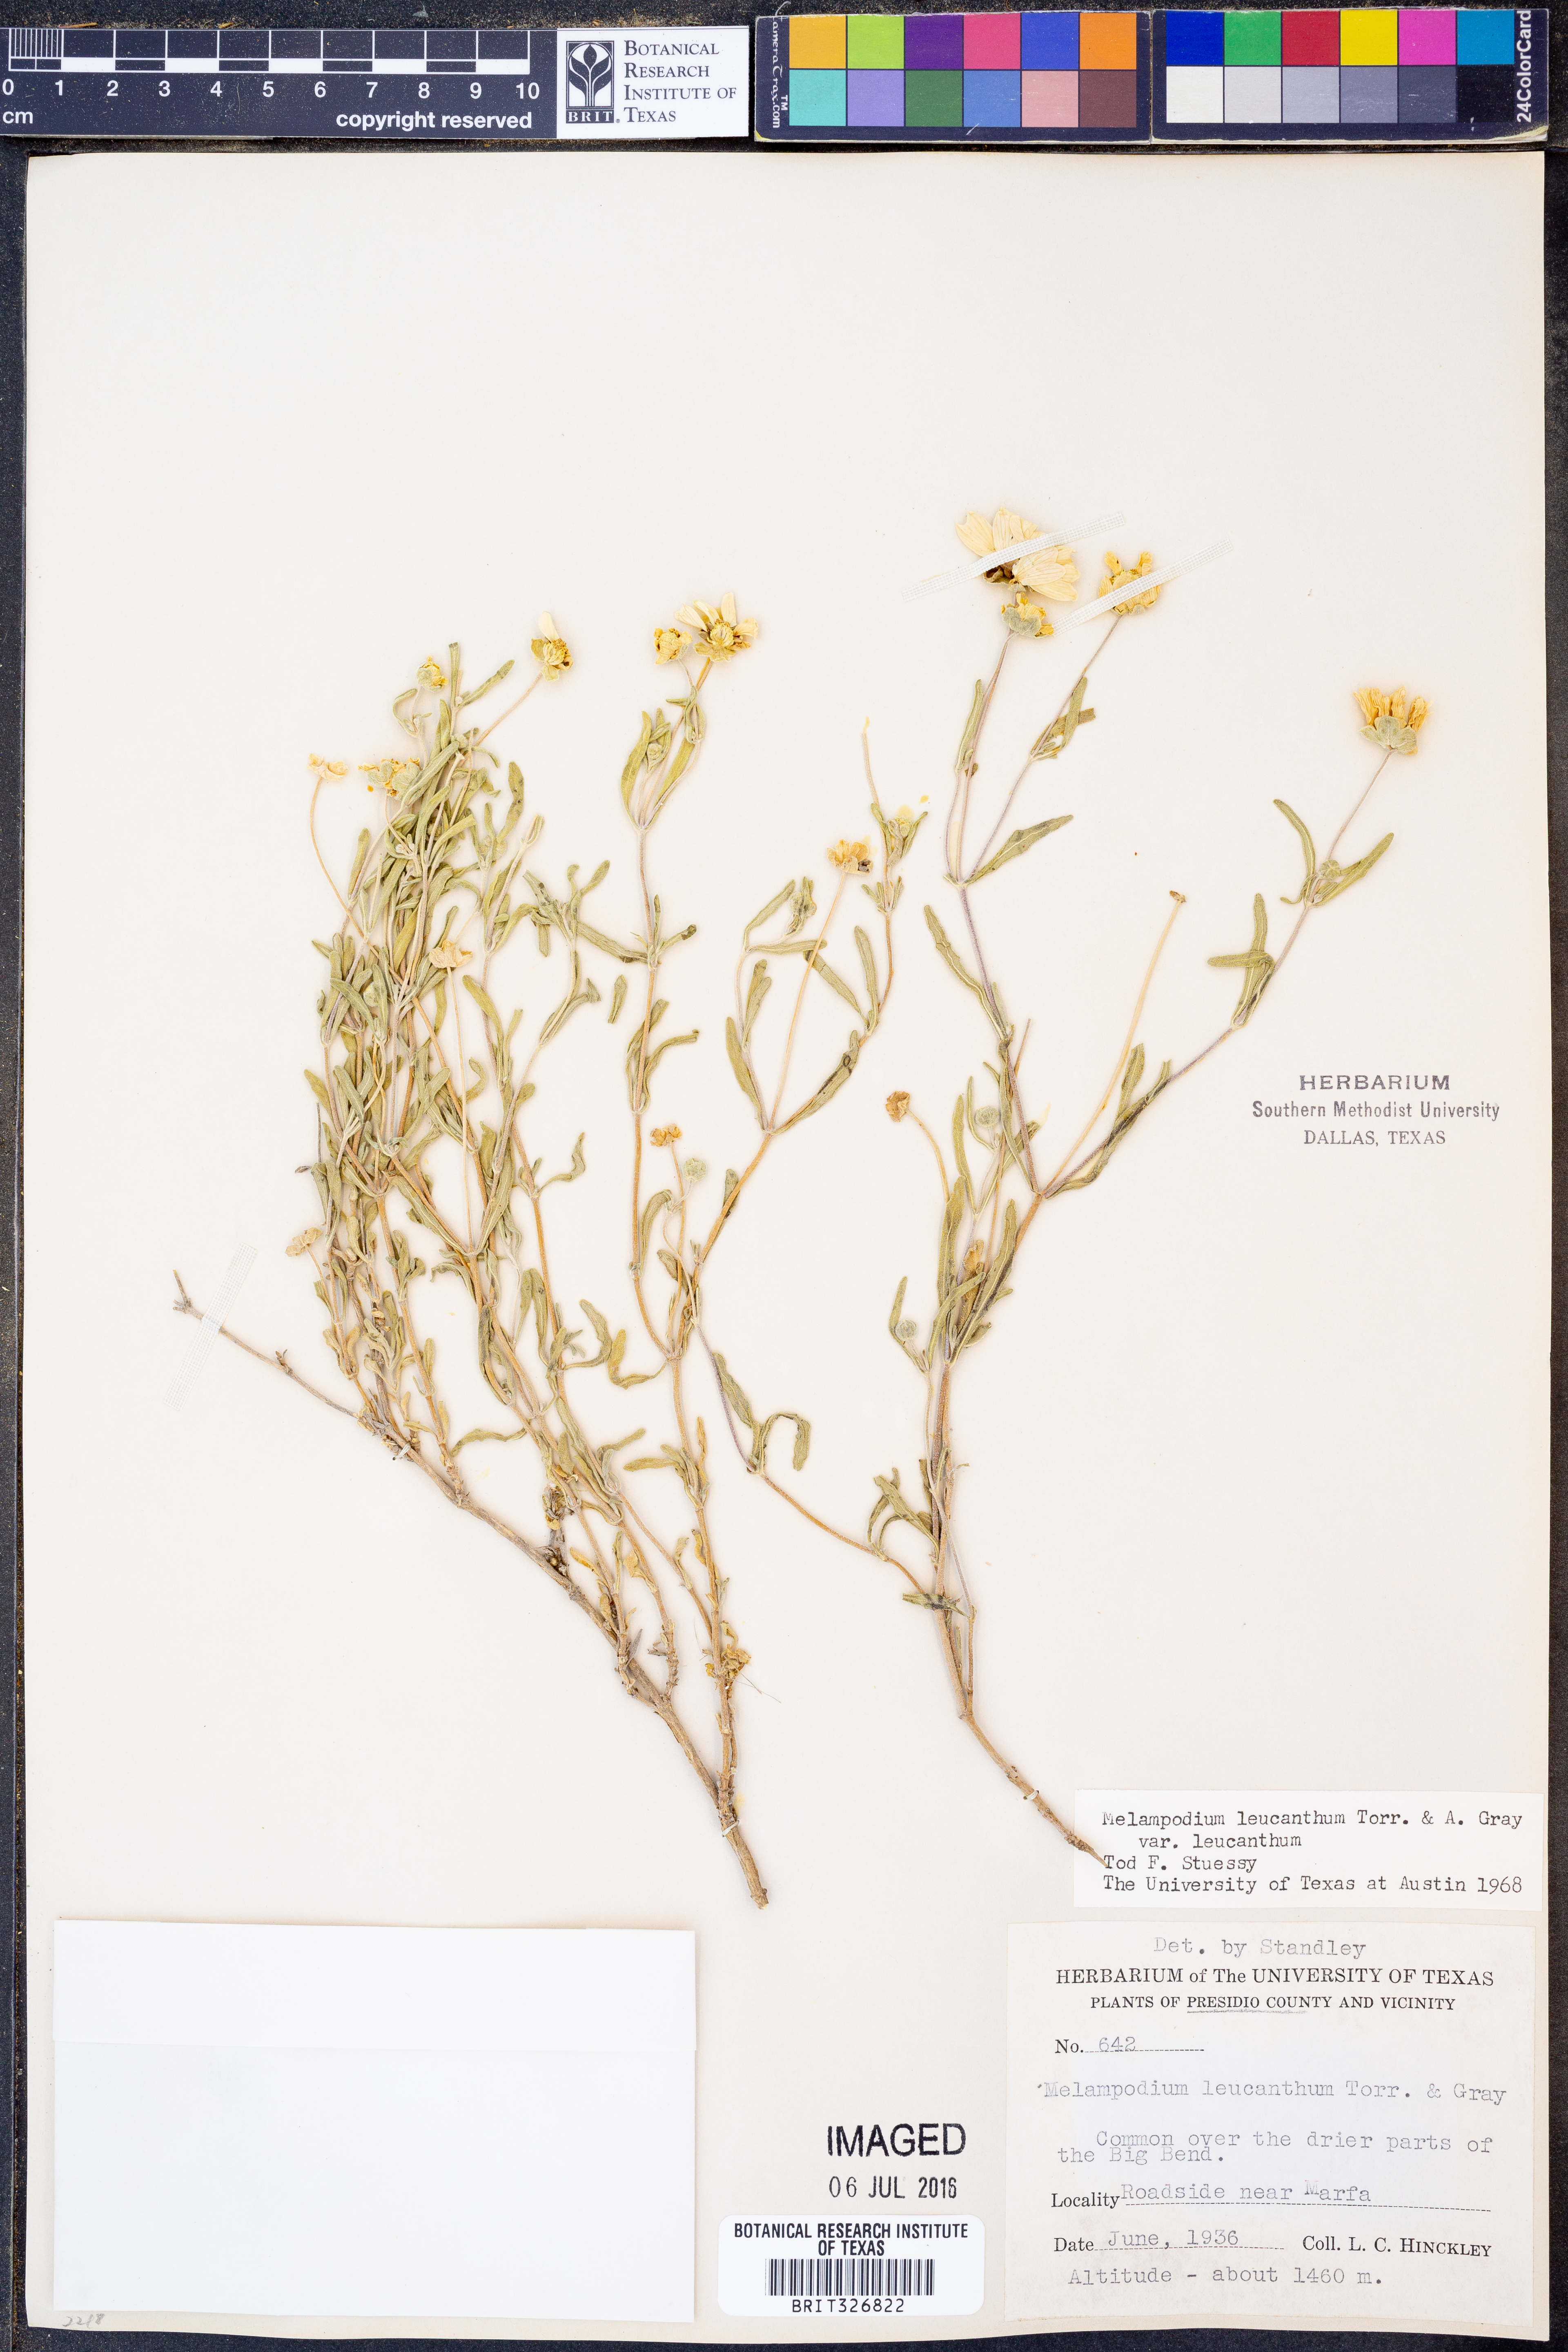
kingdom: Plantae
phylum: Tracheophyta
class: Magnoliopsida
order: Asterales
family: Asteraceae
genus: Melampodium
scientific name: Melampodium leucanthum
